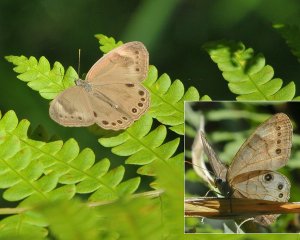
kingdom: Animalia
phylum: Arthropoda
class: Insecta
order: Lepidoptera
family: Nymphalidae
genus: Lethe
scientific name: Lethe eurydice
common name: Appalachian Eyed Brown
